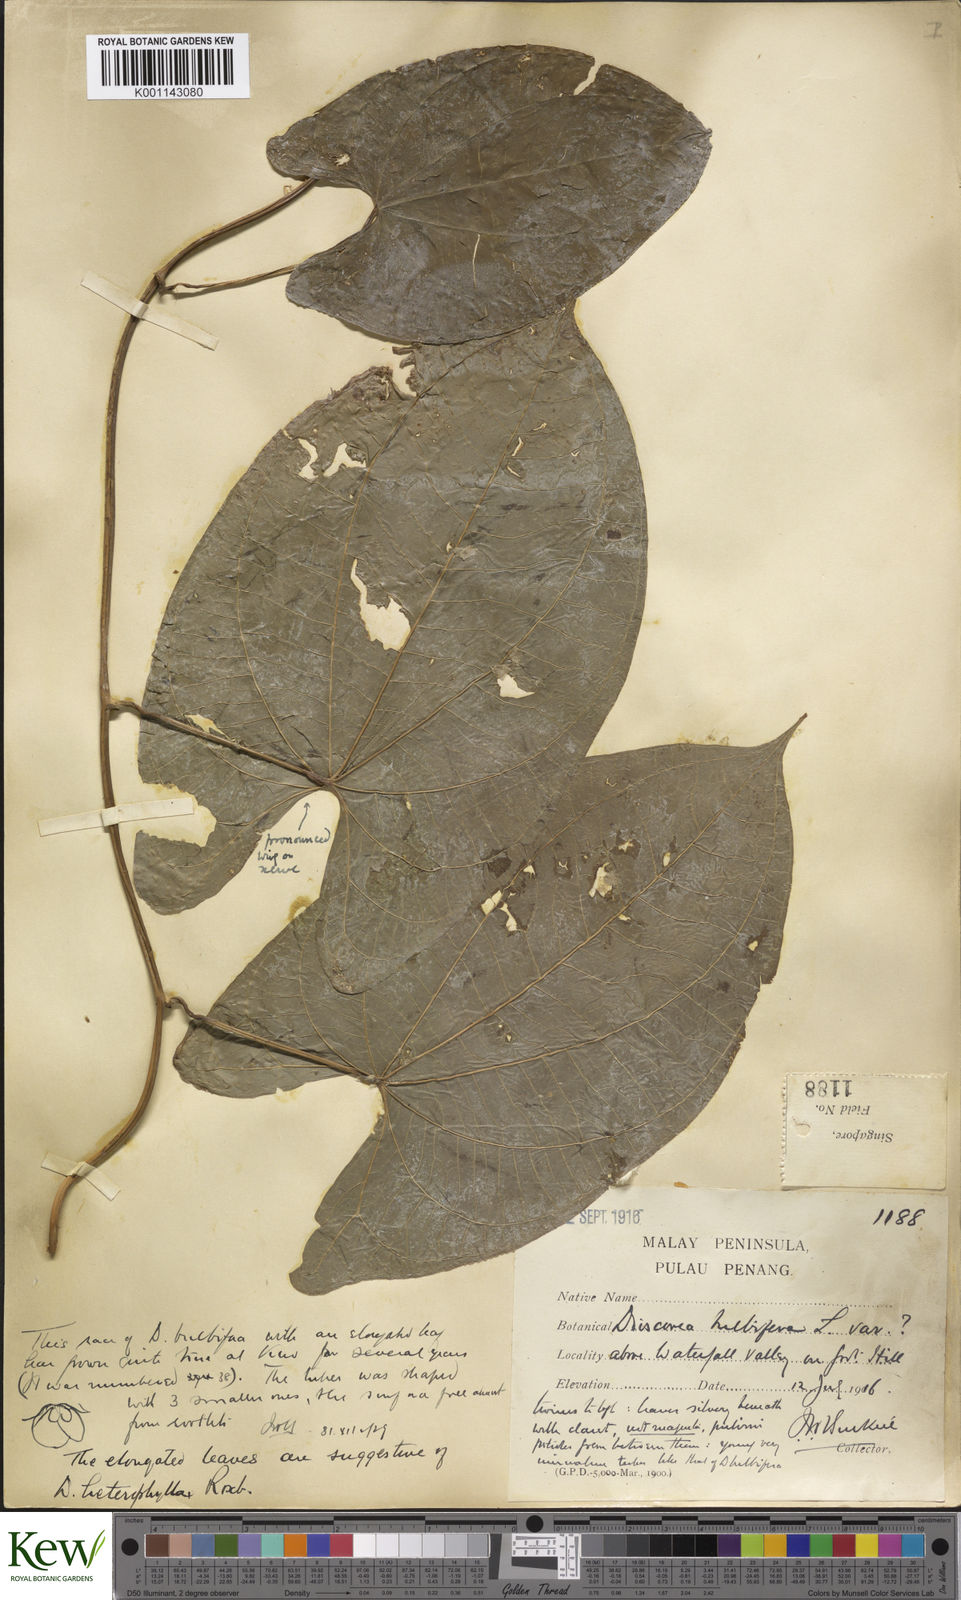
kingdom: Plantae
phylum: Tracheophyta
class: Liliopsida
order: Dioscoreales
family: Dioscoreaceae
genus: Dioscorea
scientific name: Dioscorea bulbifera
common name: Air yam
